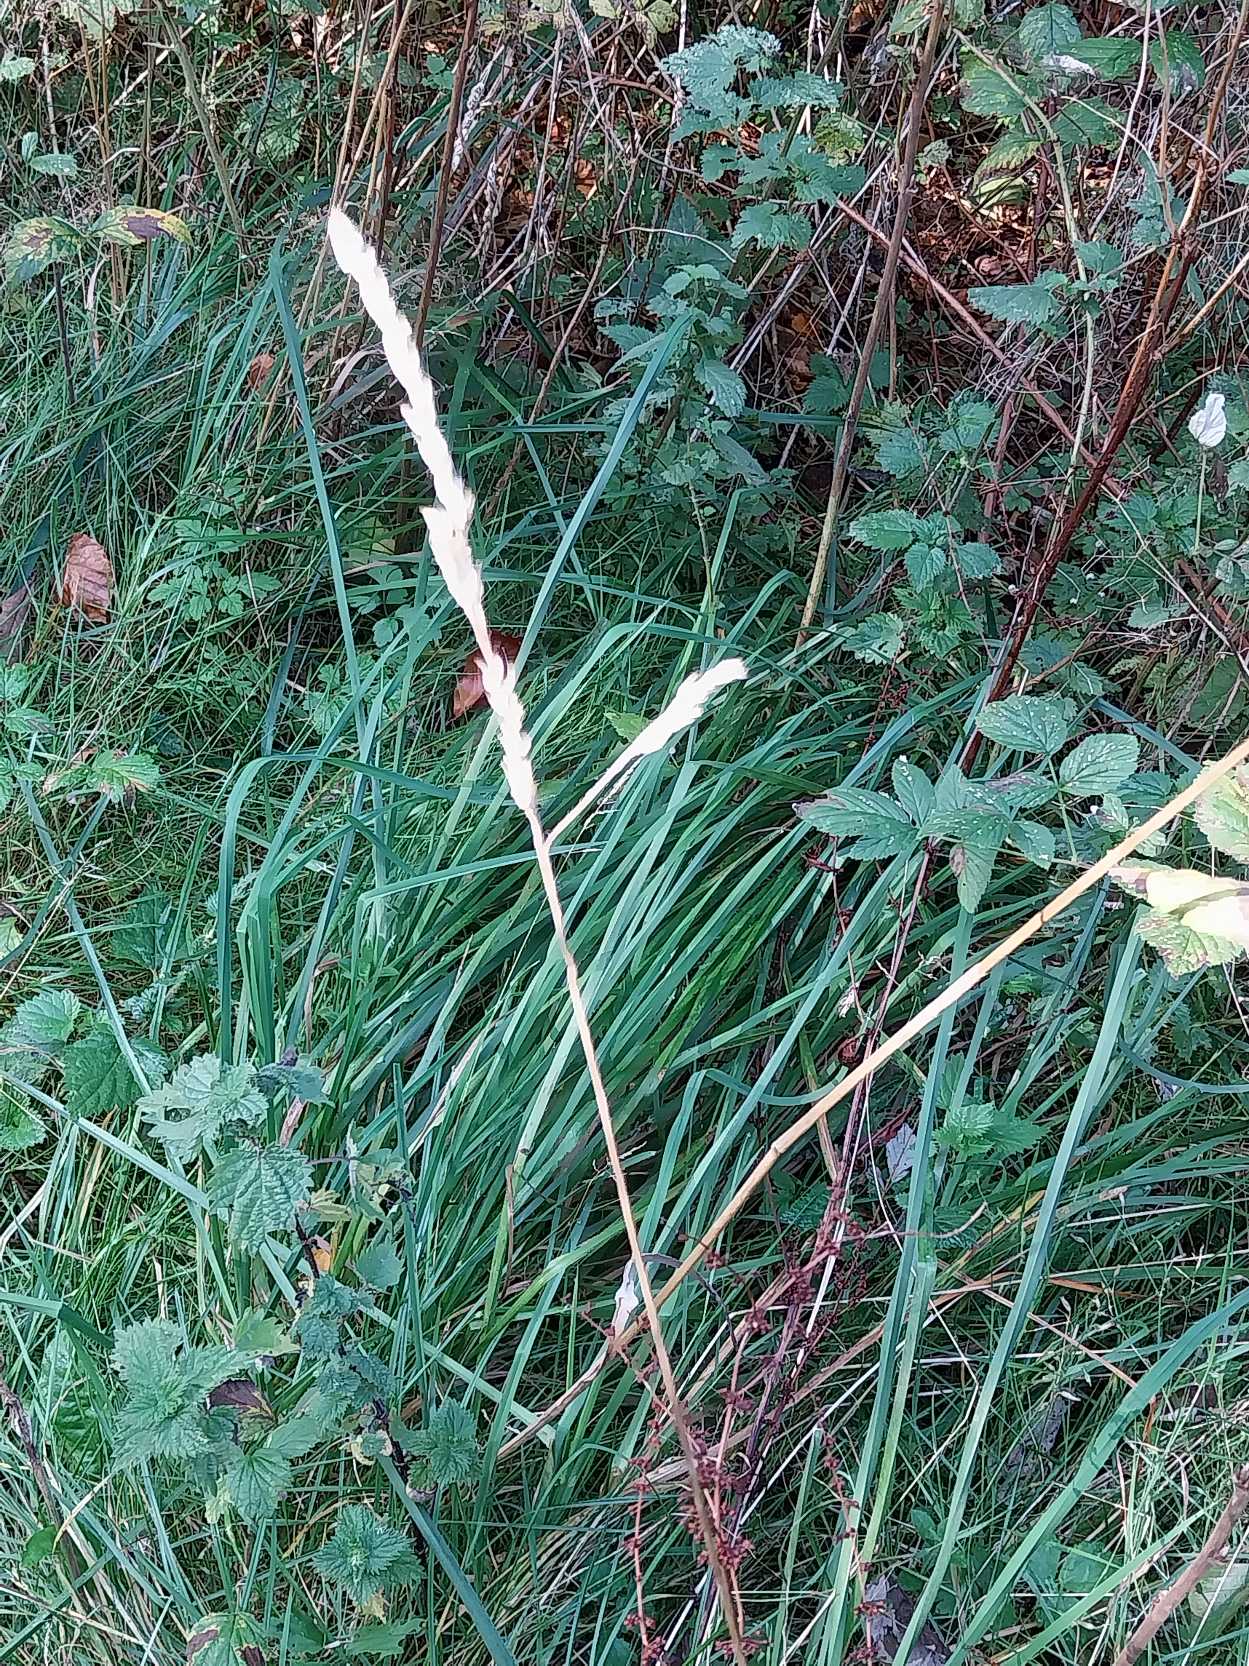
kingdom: Plantae
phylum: Tracheophyta
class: Liliopsida
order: Poales
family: Poaceae
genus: Dactylis
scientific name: Dactylis glomerata
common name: Almindelig hundegræs
